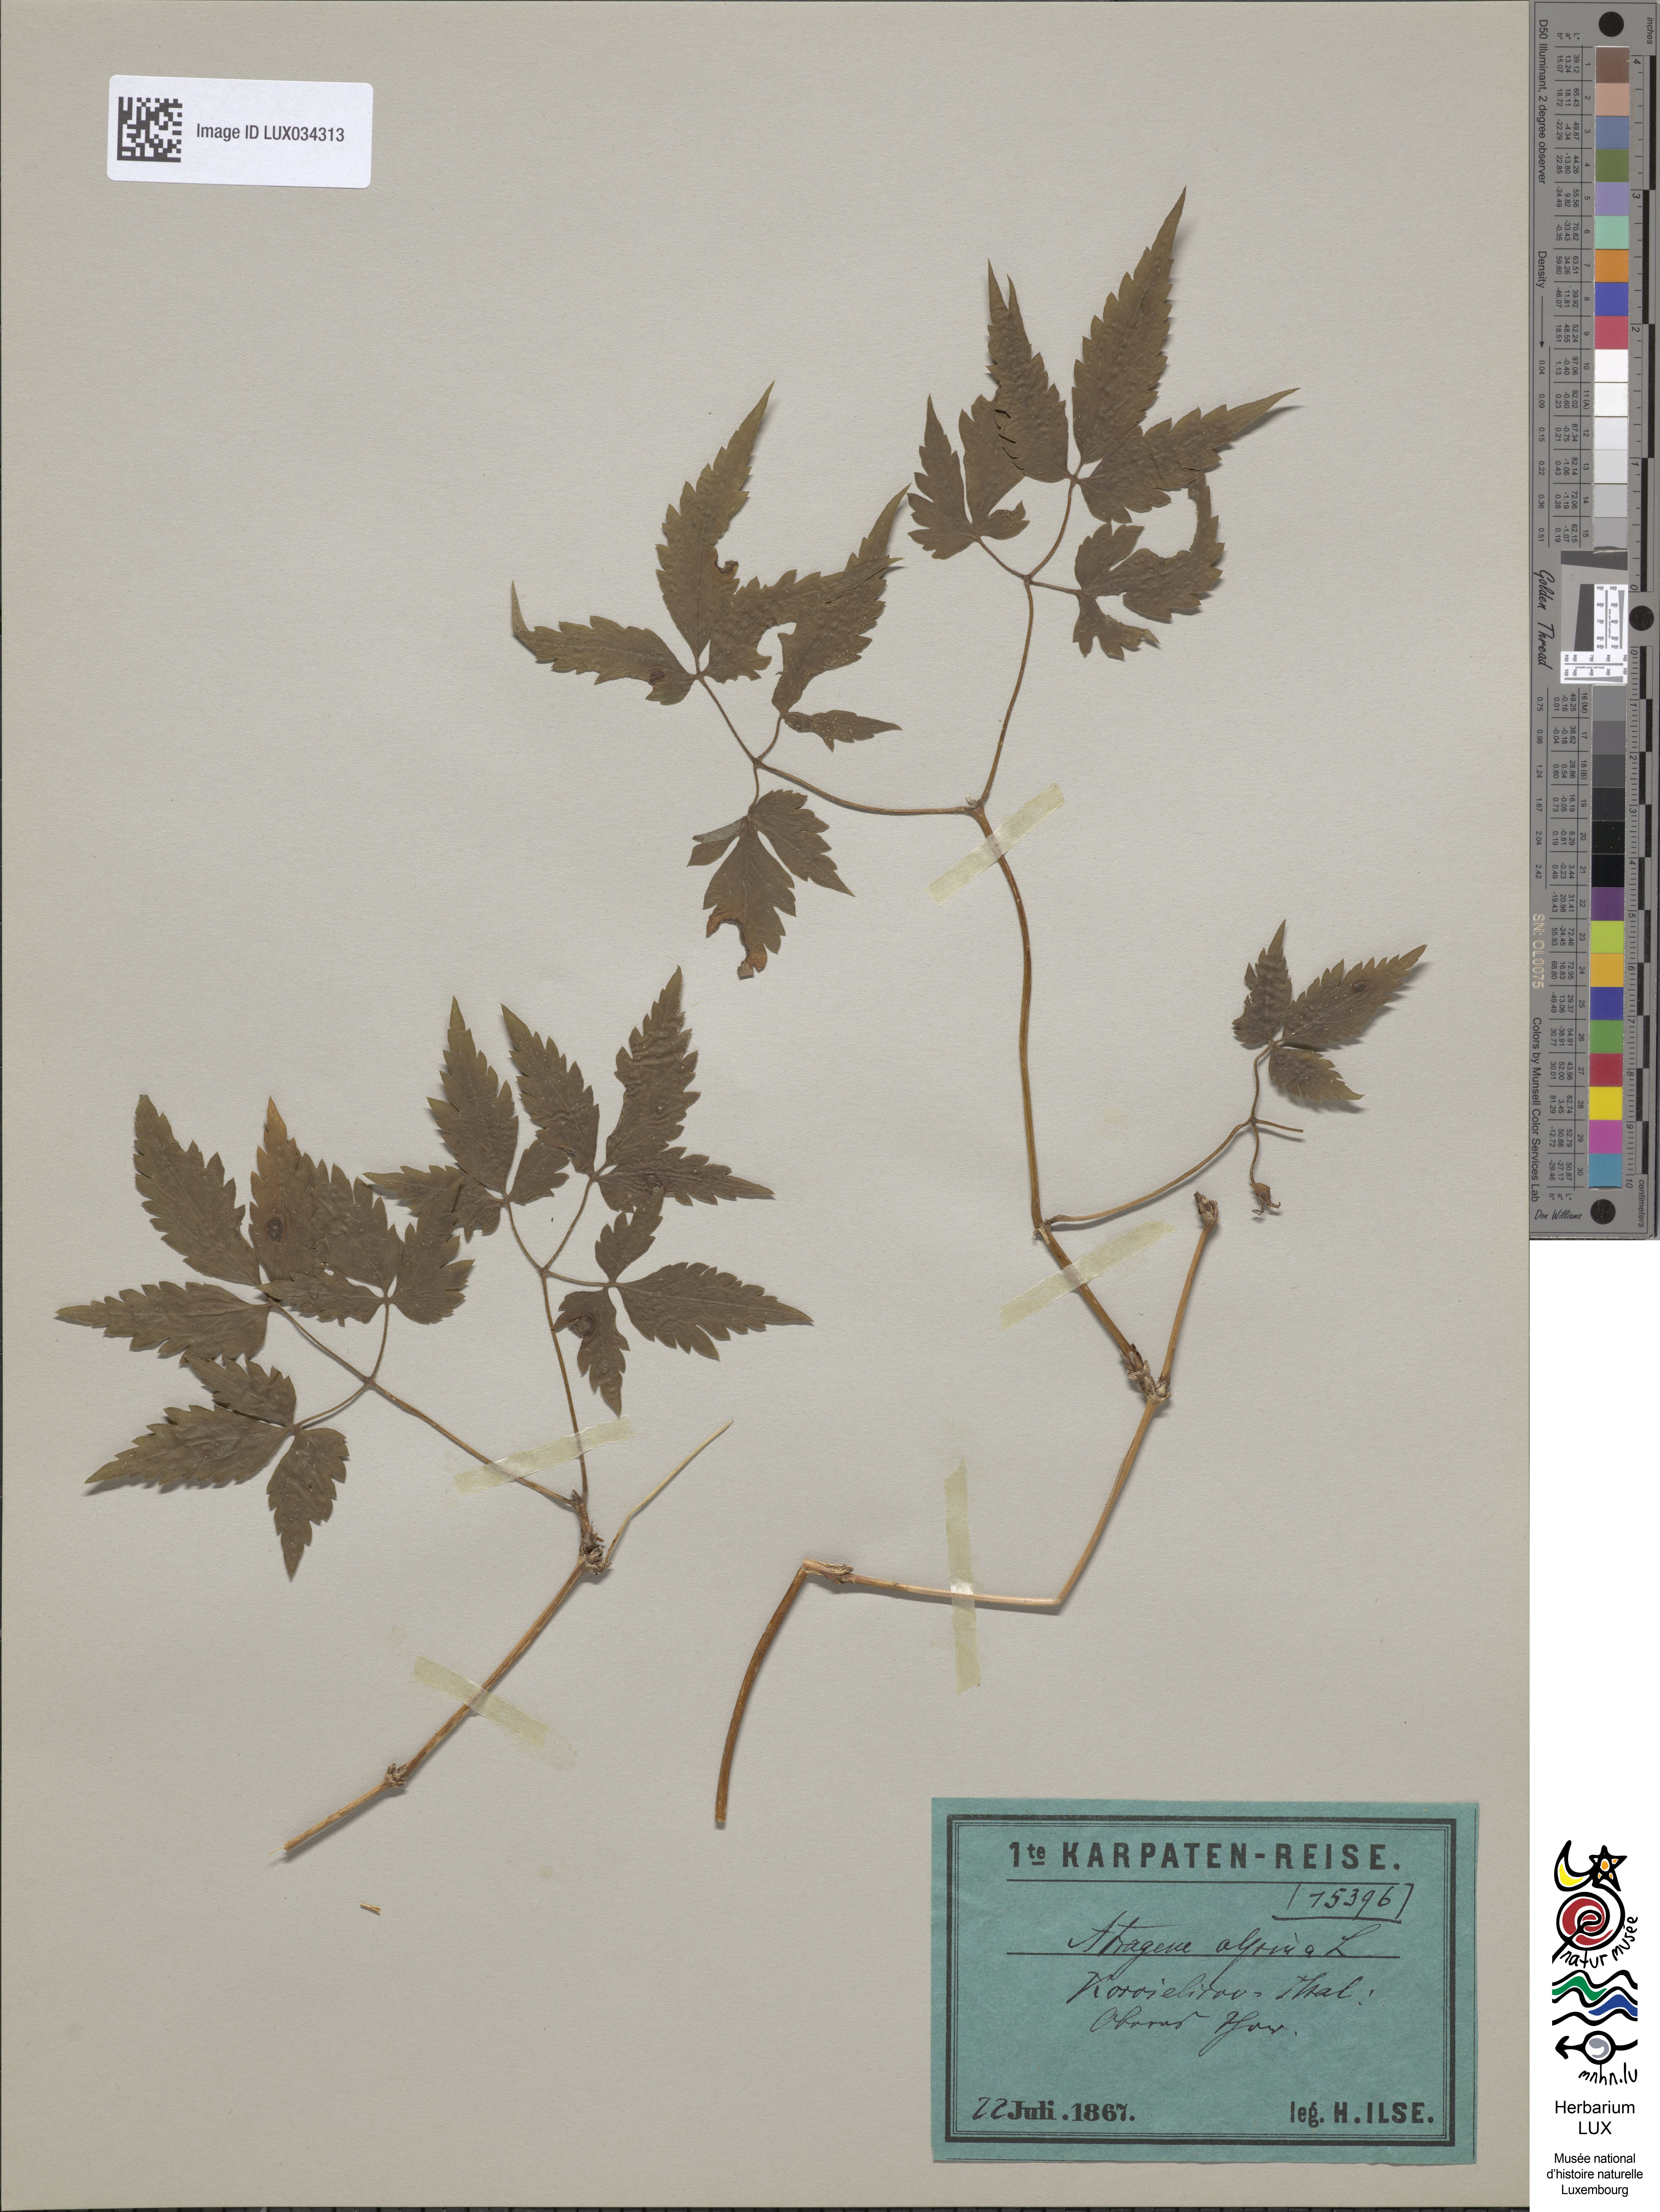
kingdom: Plantae
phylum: Tracheophyta
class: Magnoliopsida
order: Ranunculales
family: Ranunculaceae
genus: Clematis
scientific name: Clematis alpina
